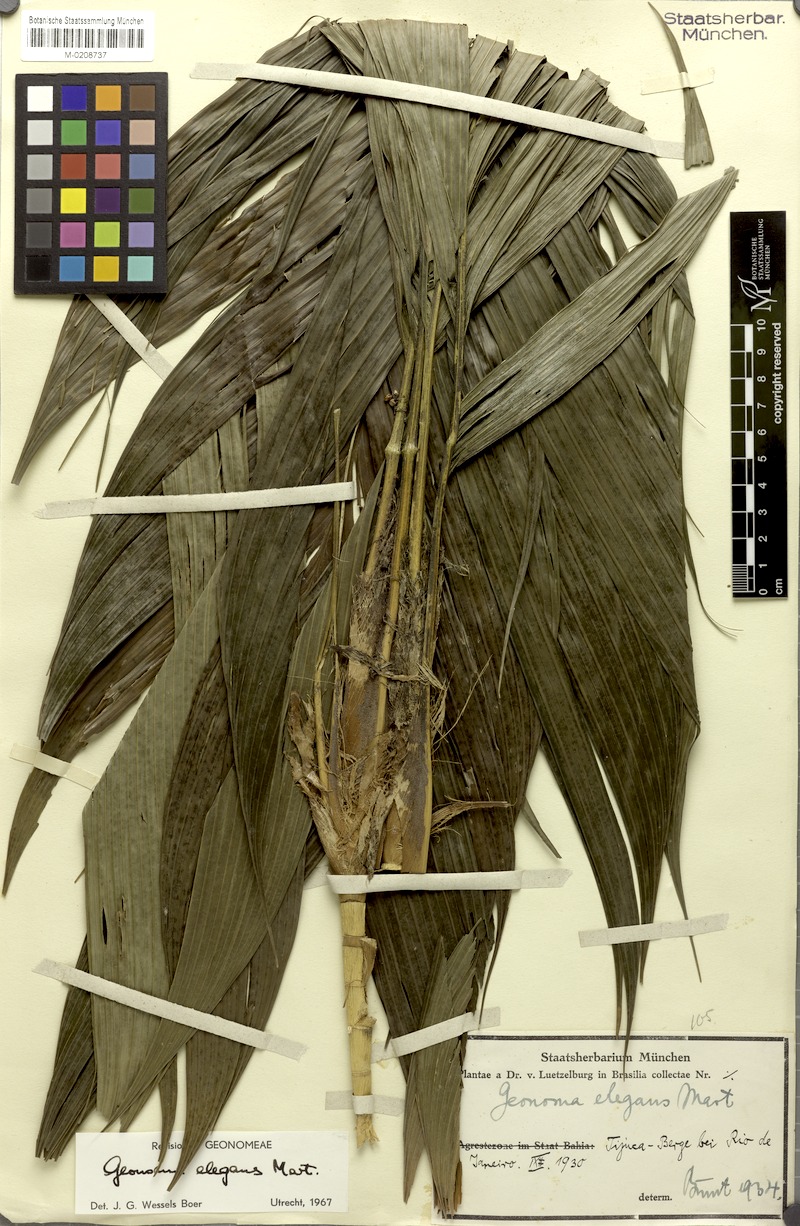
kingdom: Plantae
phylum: Tracheophyta
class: Liliopsida
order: Arecales
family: Arecaceae
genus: Geonoma
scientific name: Geonoma elegans
